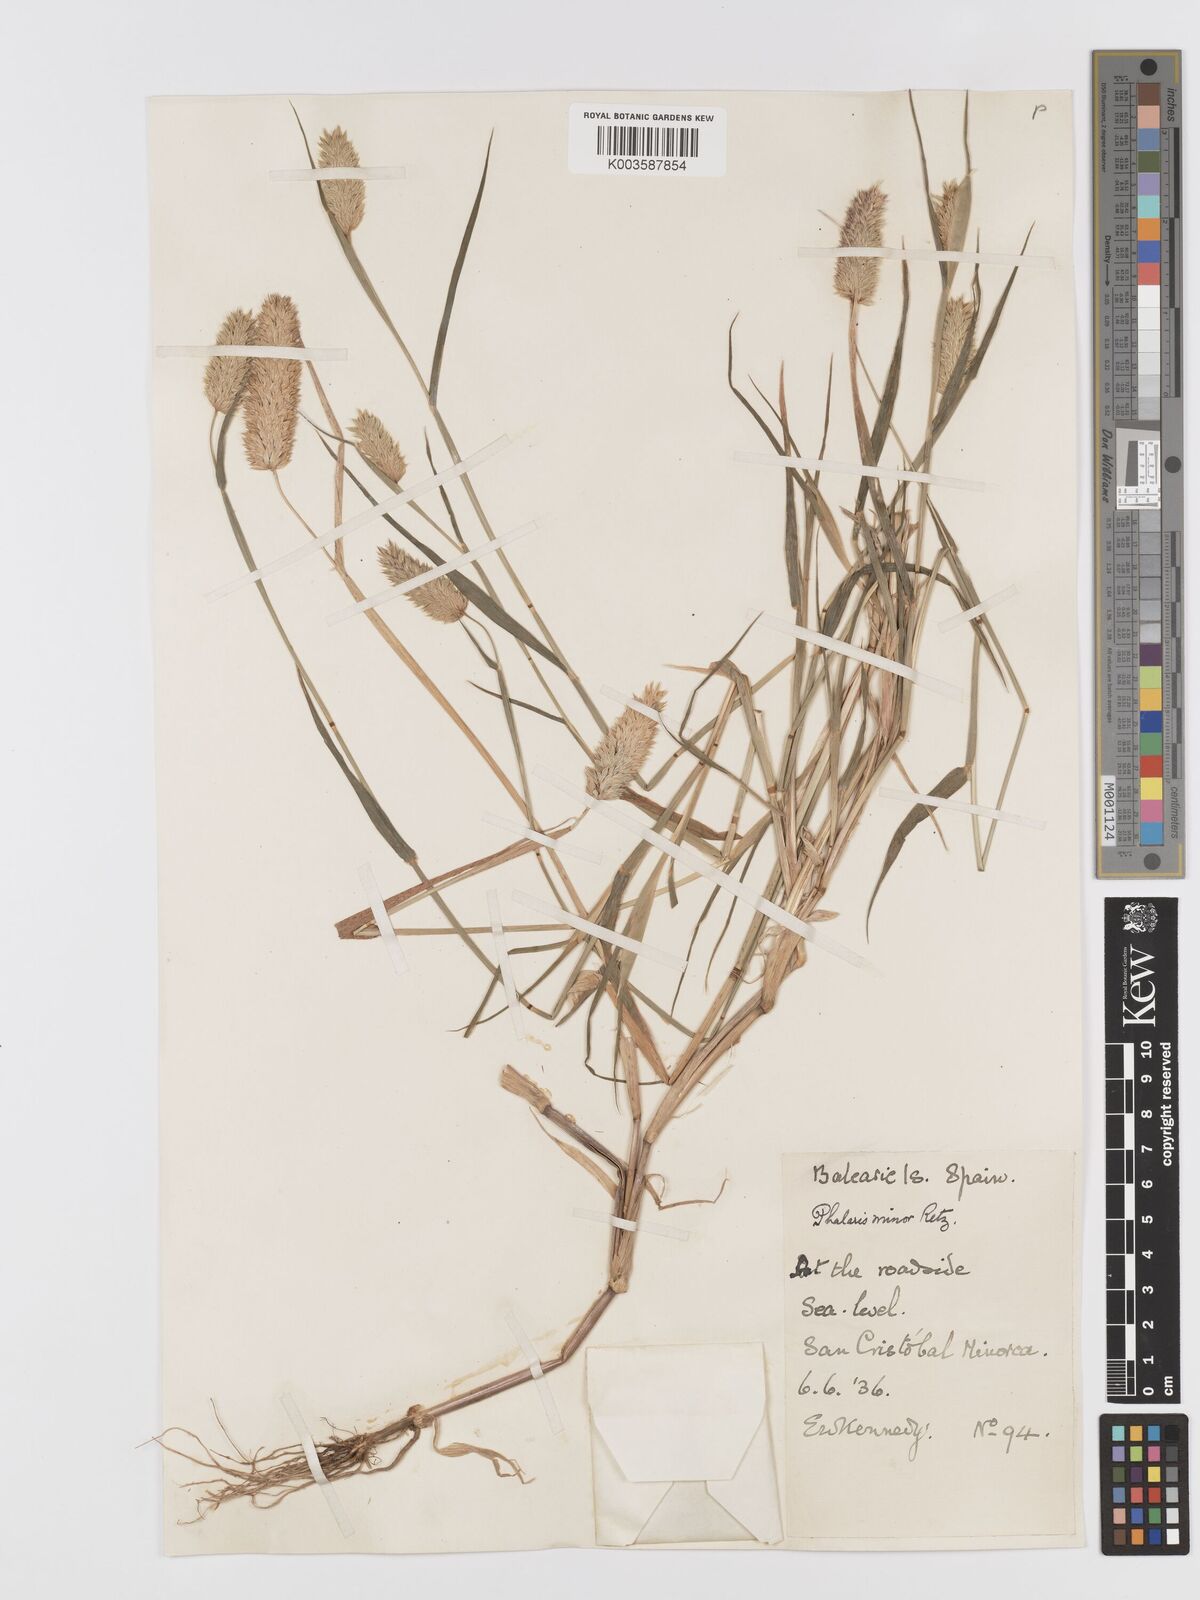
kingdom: Plantae
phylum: Tracheophyta
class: Liliopsida
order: Poales
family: Poaceae
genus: Phalaris
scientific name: Phalaris minor
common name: Littleseed canarygrass
